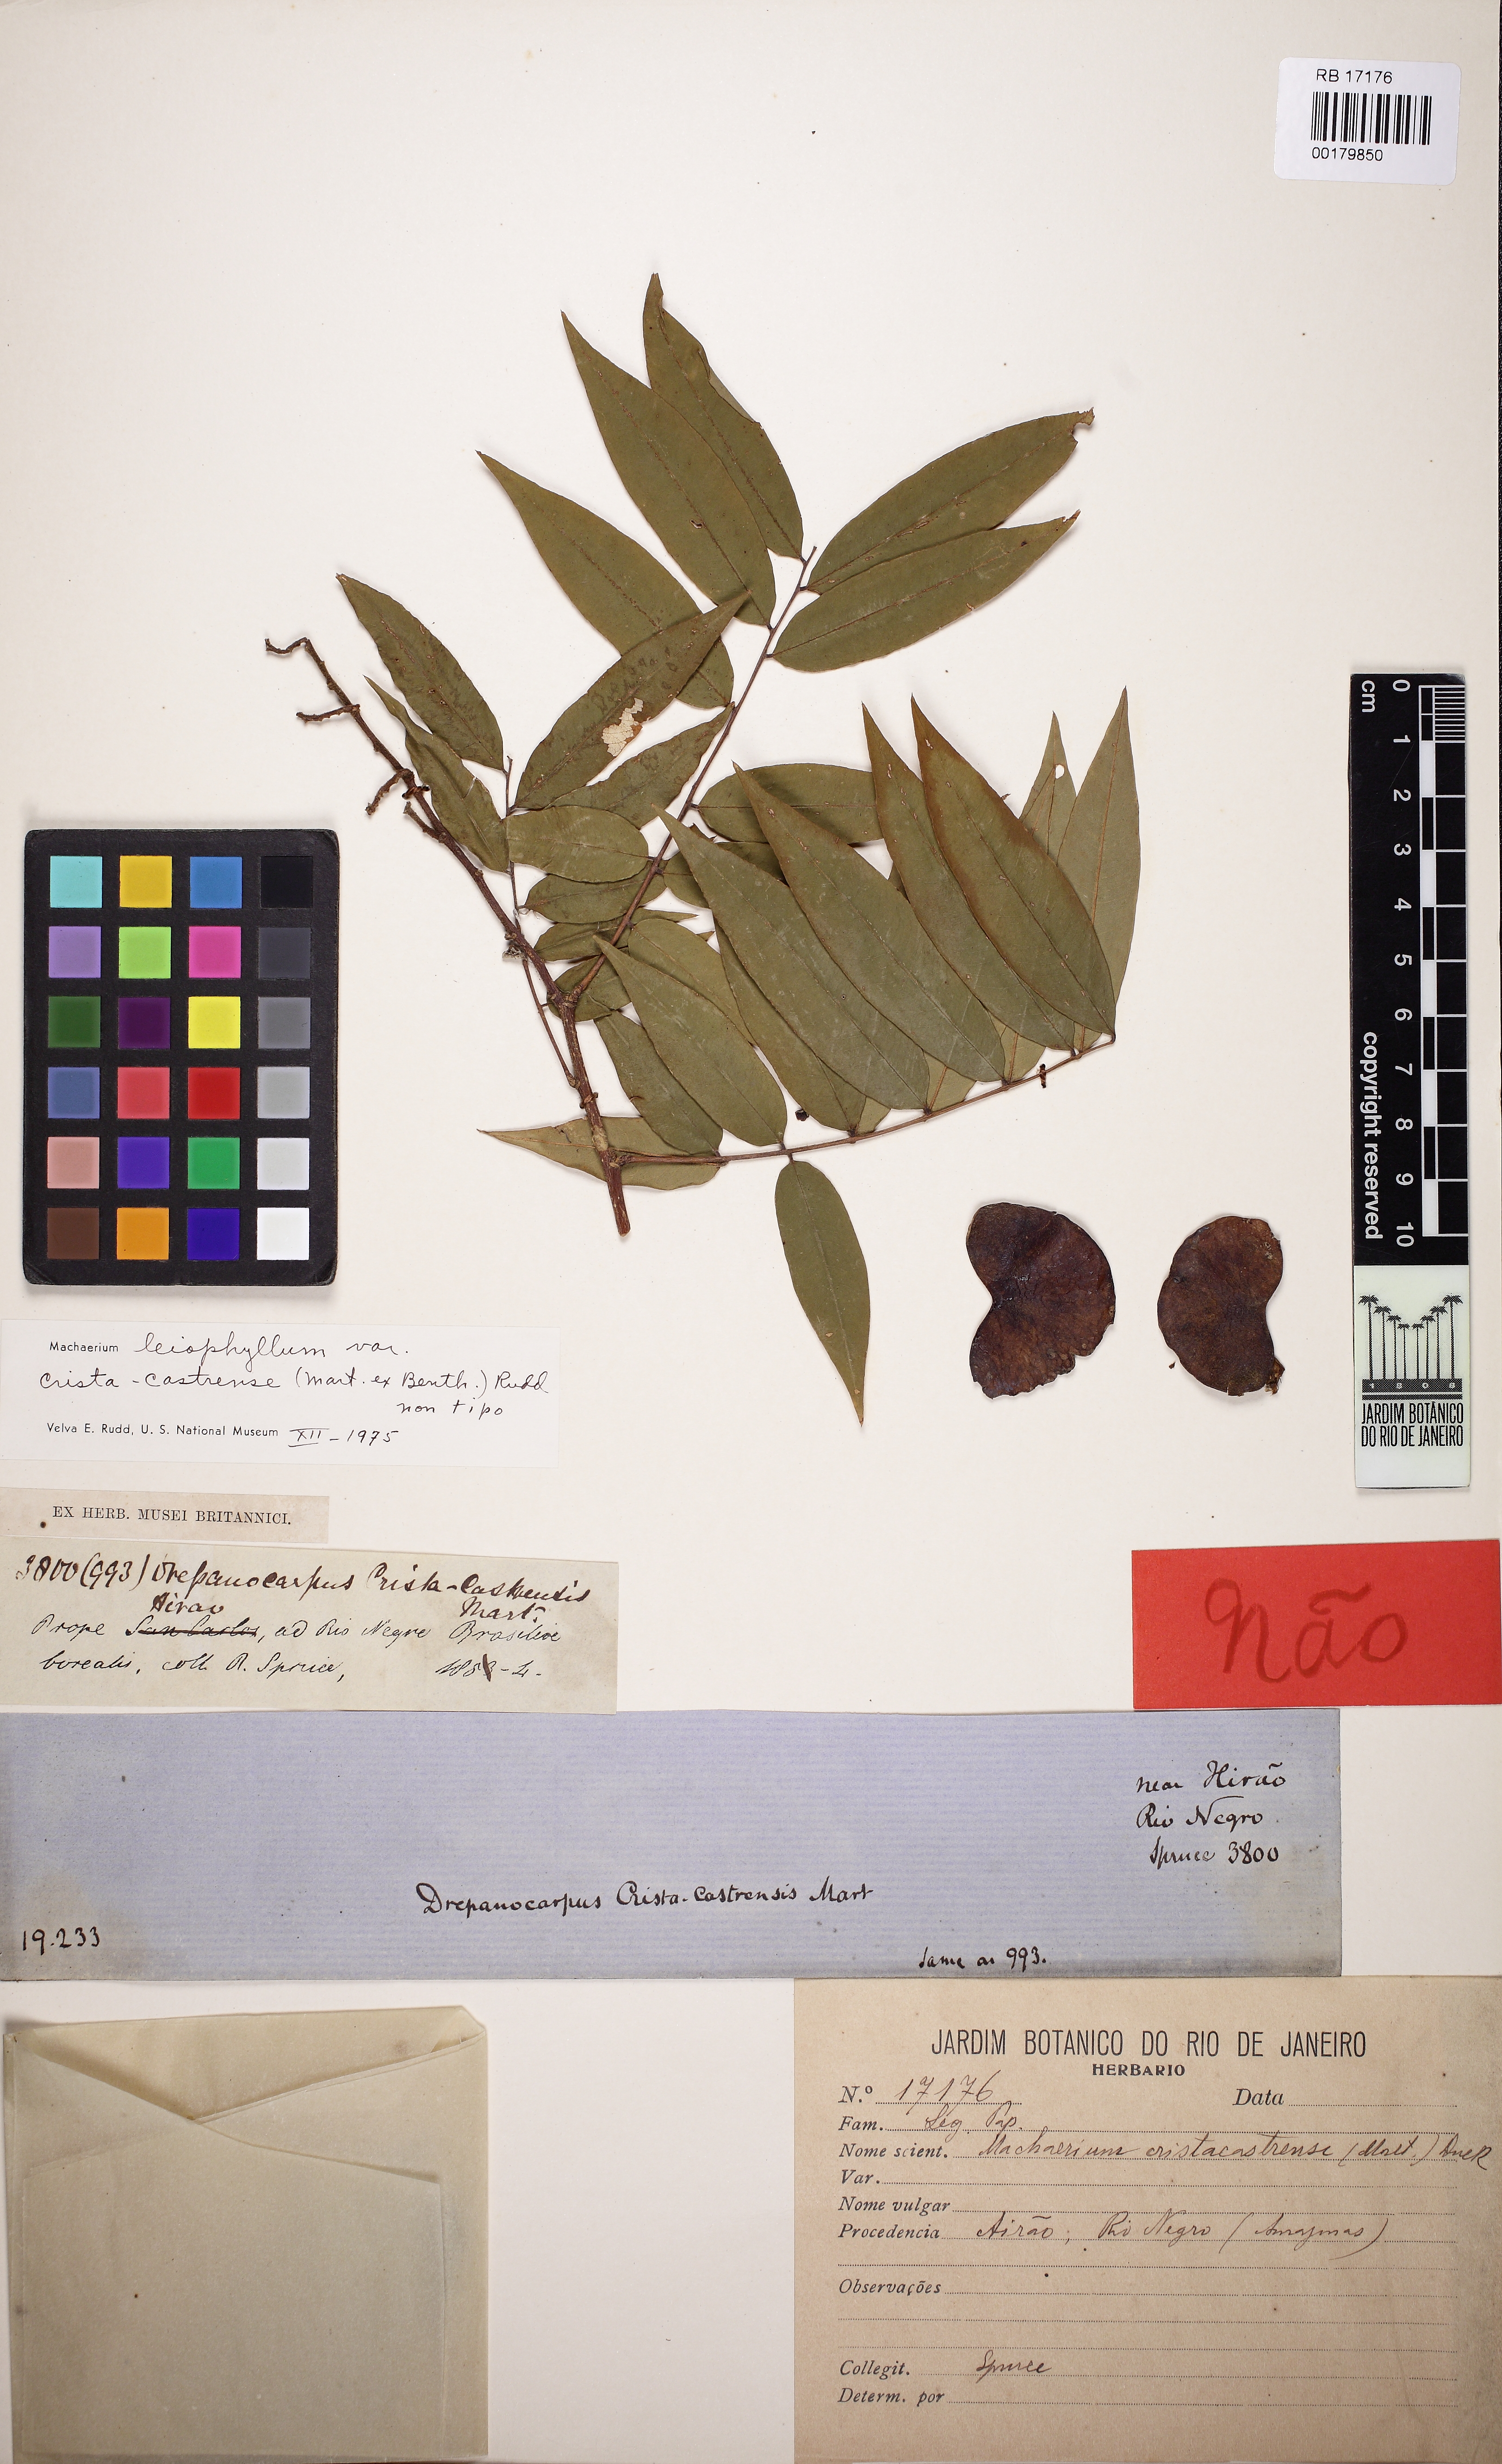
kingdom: Plantae
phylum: Tracheophyta
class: Magnoliopsida
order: Fabales
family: Fabaceae
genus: Machaerium
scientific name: Machaerium leiophyllum
